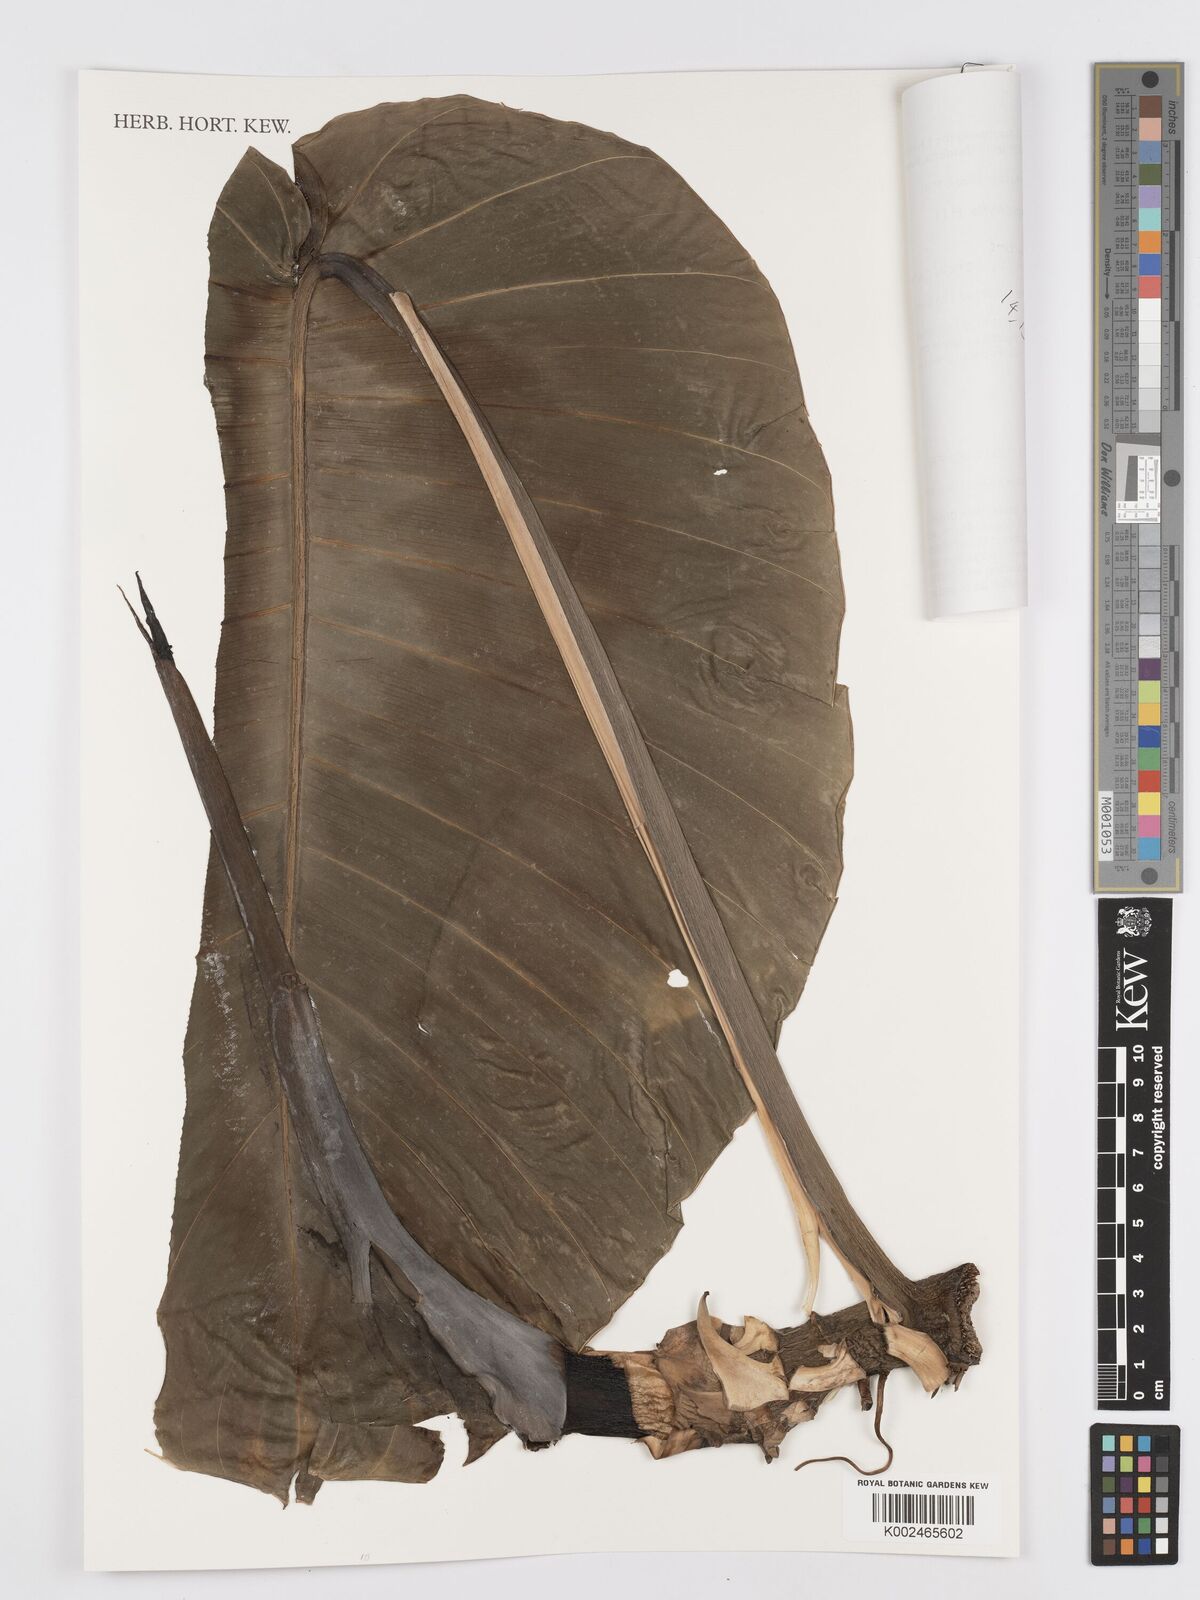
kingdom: Plantae
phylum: Tracheophyta
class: Liliopsida
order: Alismatales
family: Araceae
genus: Rhaphidophora
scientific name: Rhaphidophora megaphylla
